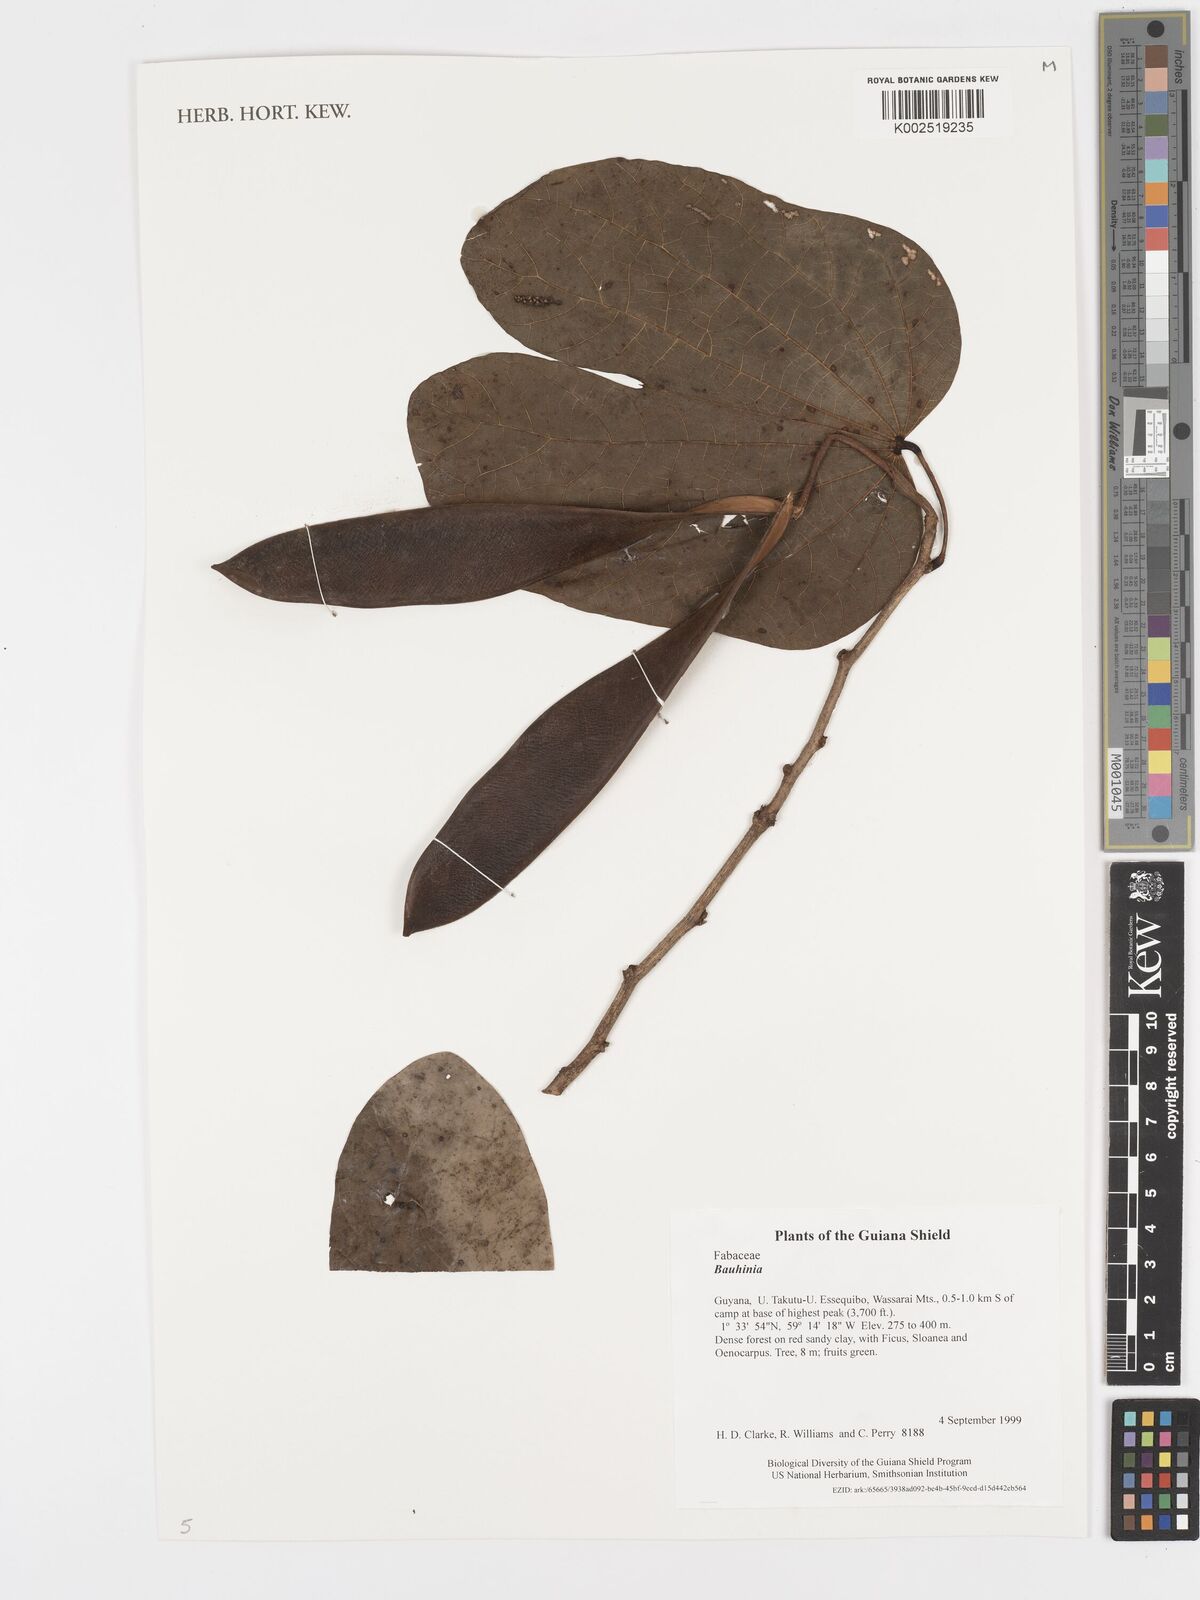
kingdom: Plantae
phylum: Tracheophyta
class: Magnoliopsida
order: Fabales
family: Fabaceae
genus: Bauhinia
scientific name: Bauhinia
